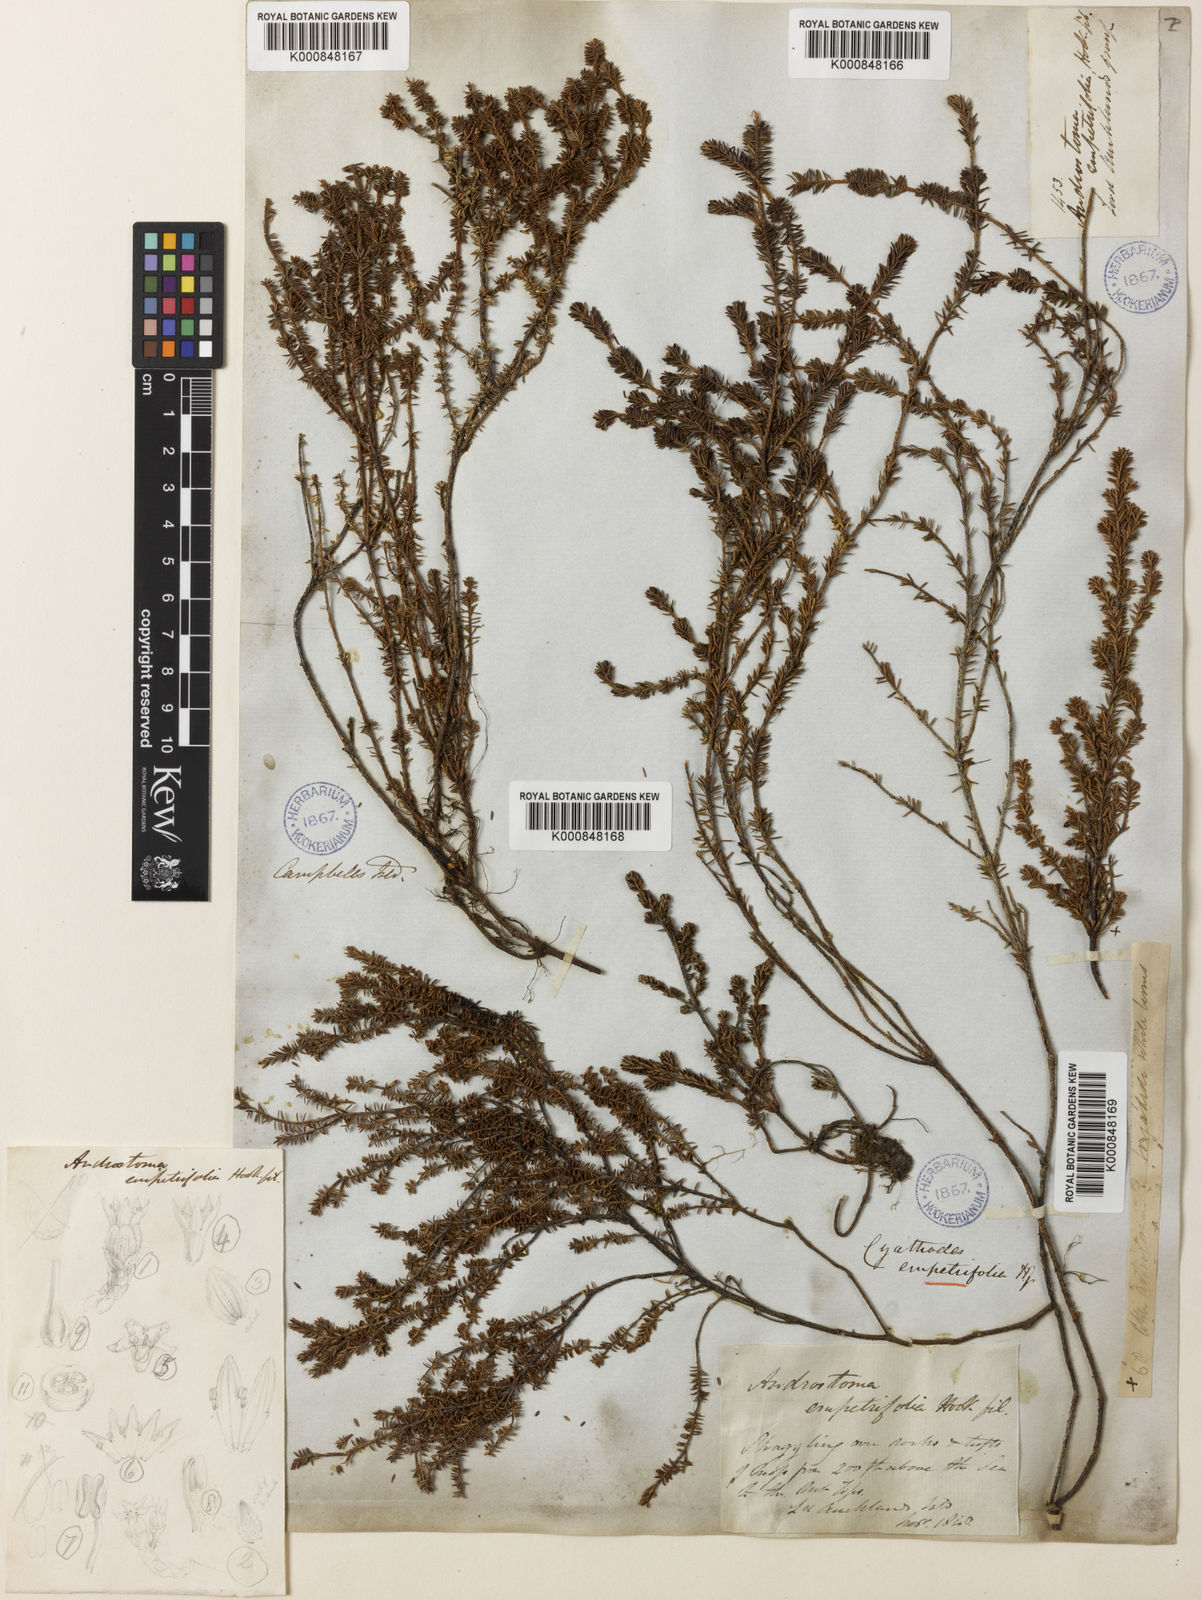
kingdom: Plantae
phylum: Tracheophyta
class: Magnoliopsida
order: Ericales
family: Ericaceae
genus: Androstoma
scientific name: Androstoma empetrifolia
